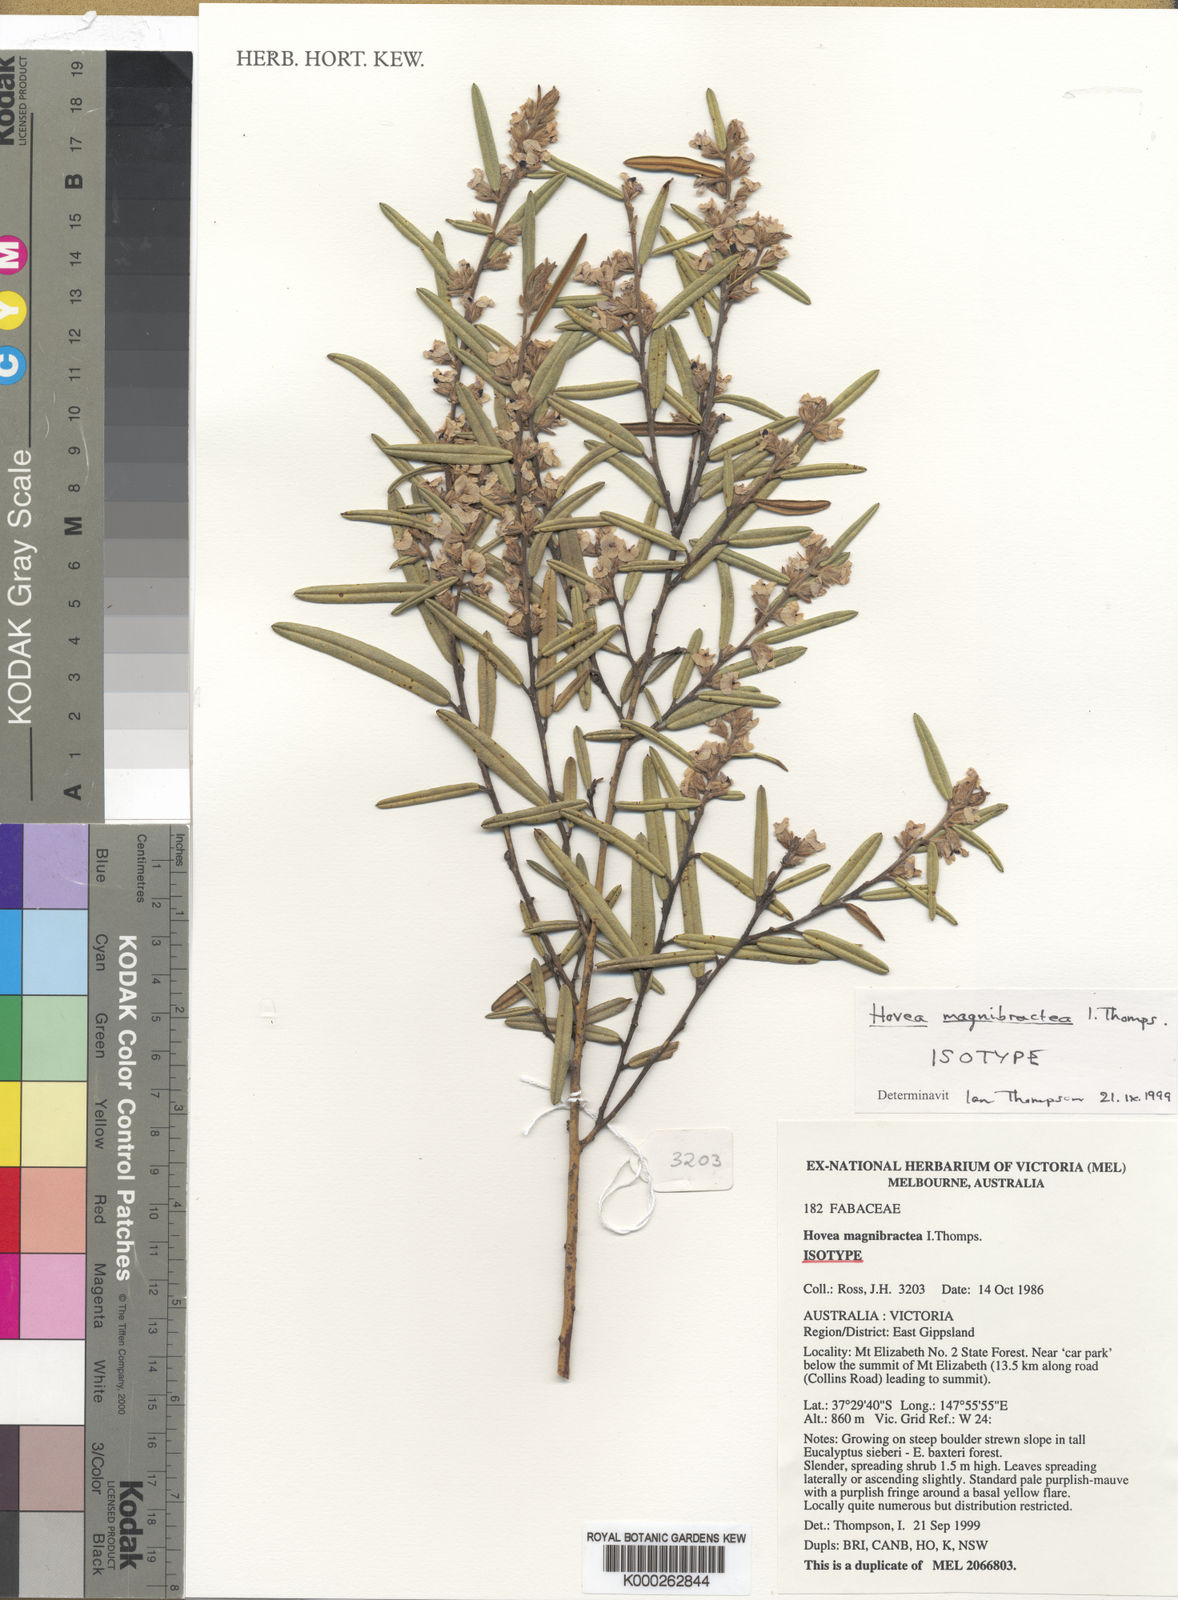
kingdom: Plantae
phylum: Tracheophyta
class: Magnoliopsida
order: Fabales
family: Fabaceae
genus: Hovea
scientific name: Hovea magnibractea
